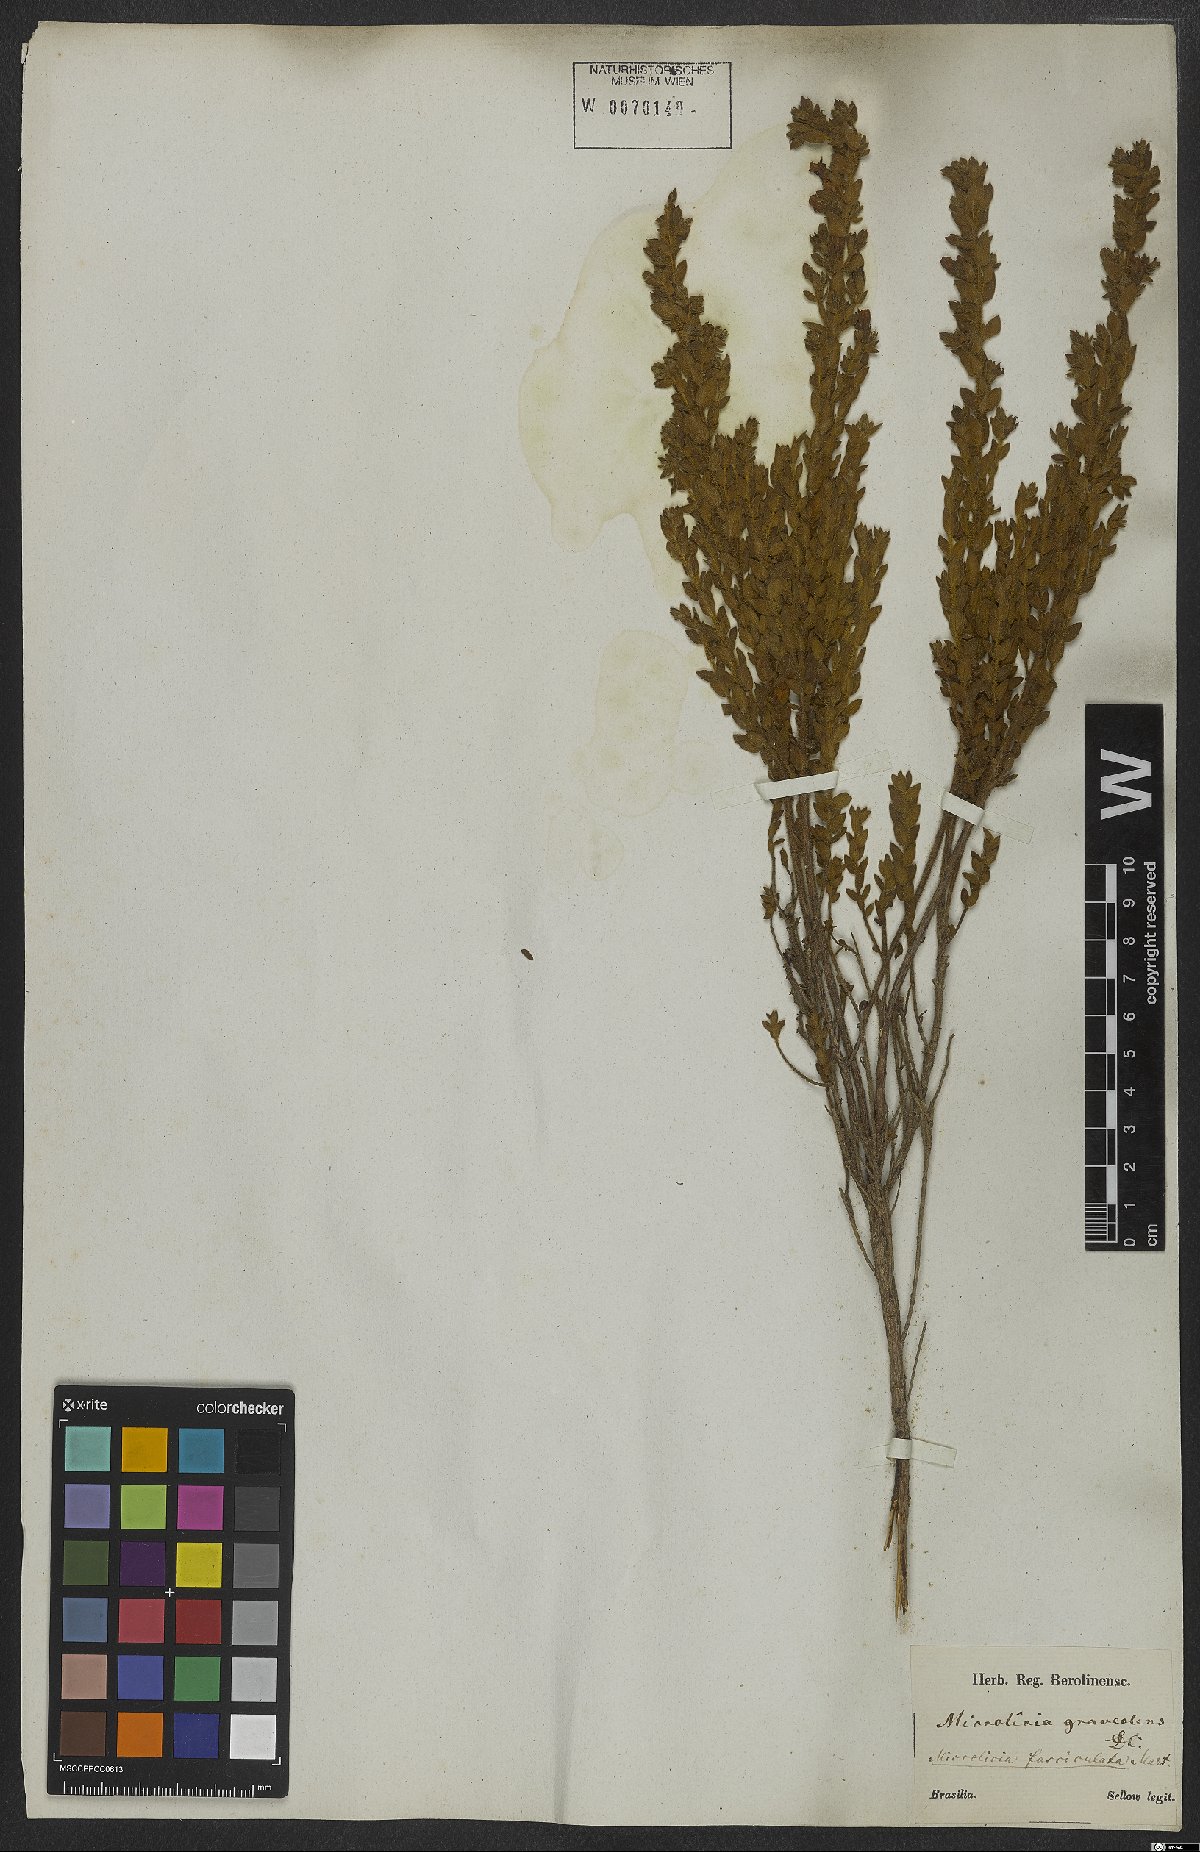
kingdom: Plantae
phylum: Tracheophyta
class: Magnoliopsida
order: Myrtales
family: Melastomataceae
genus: Microlicia
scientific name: Microlicia fasciculata
